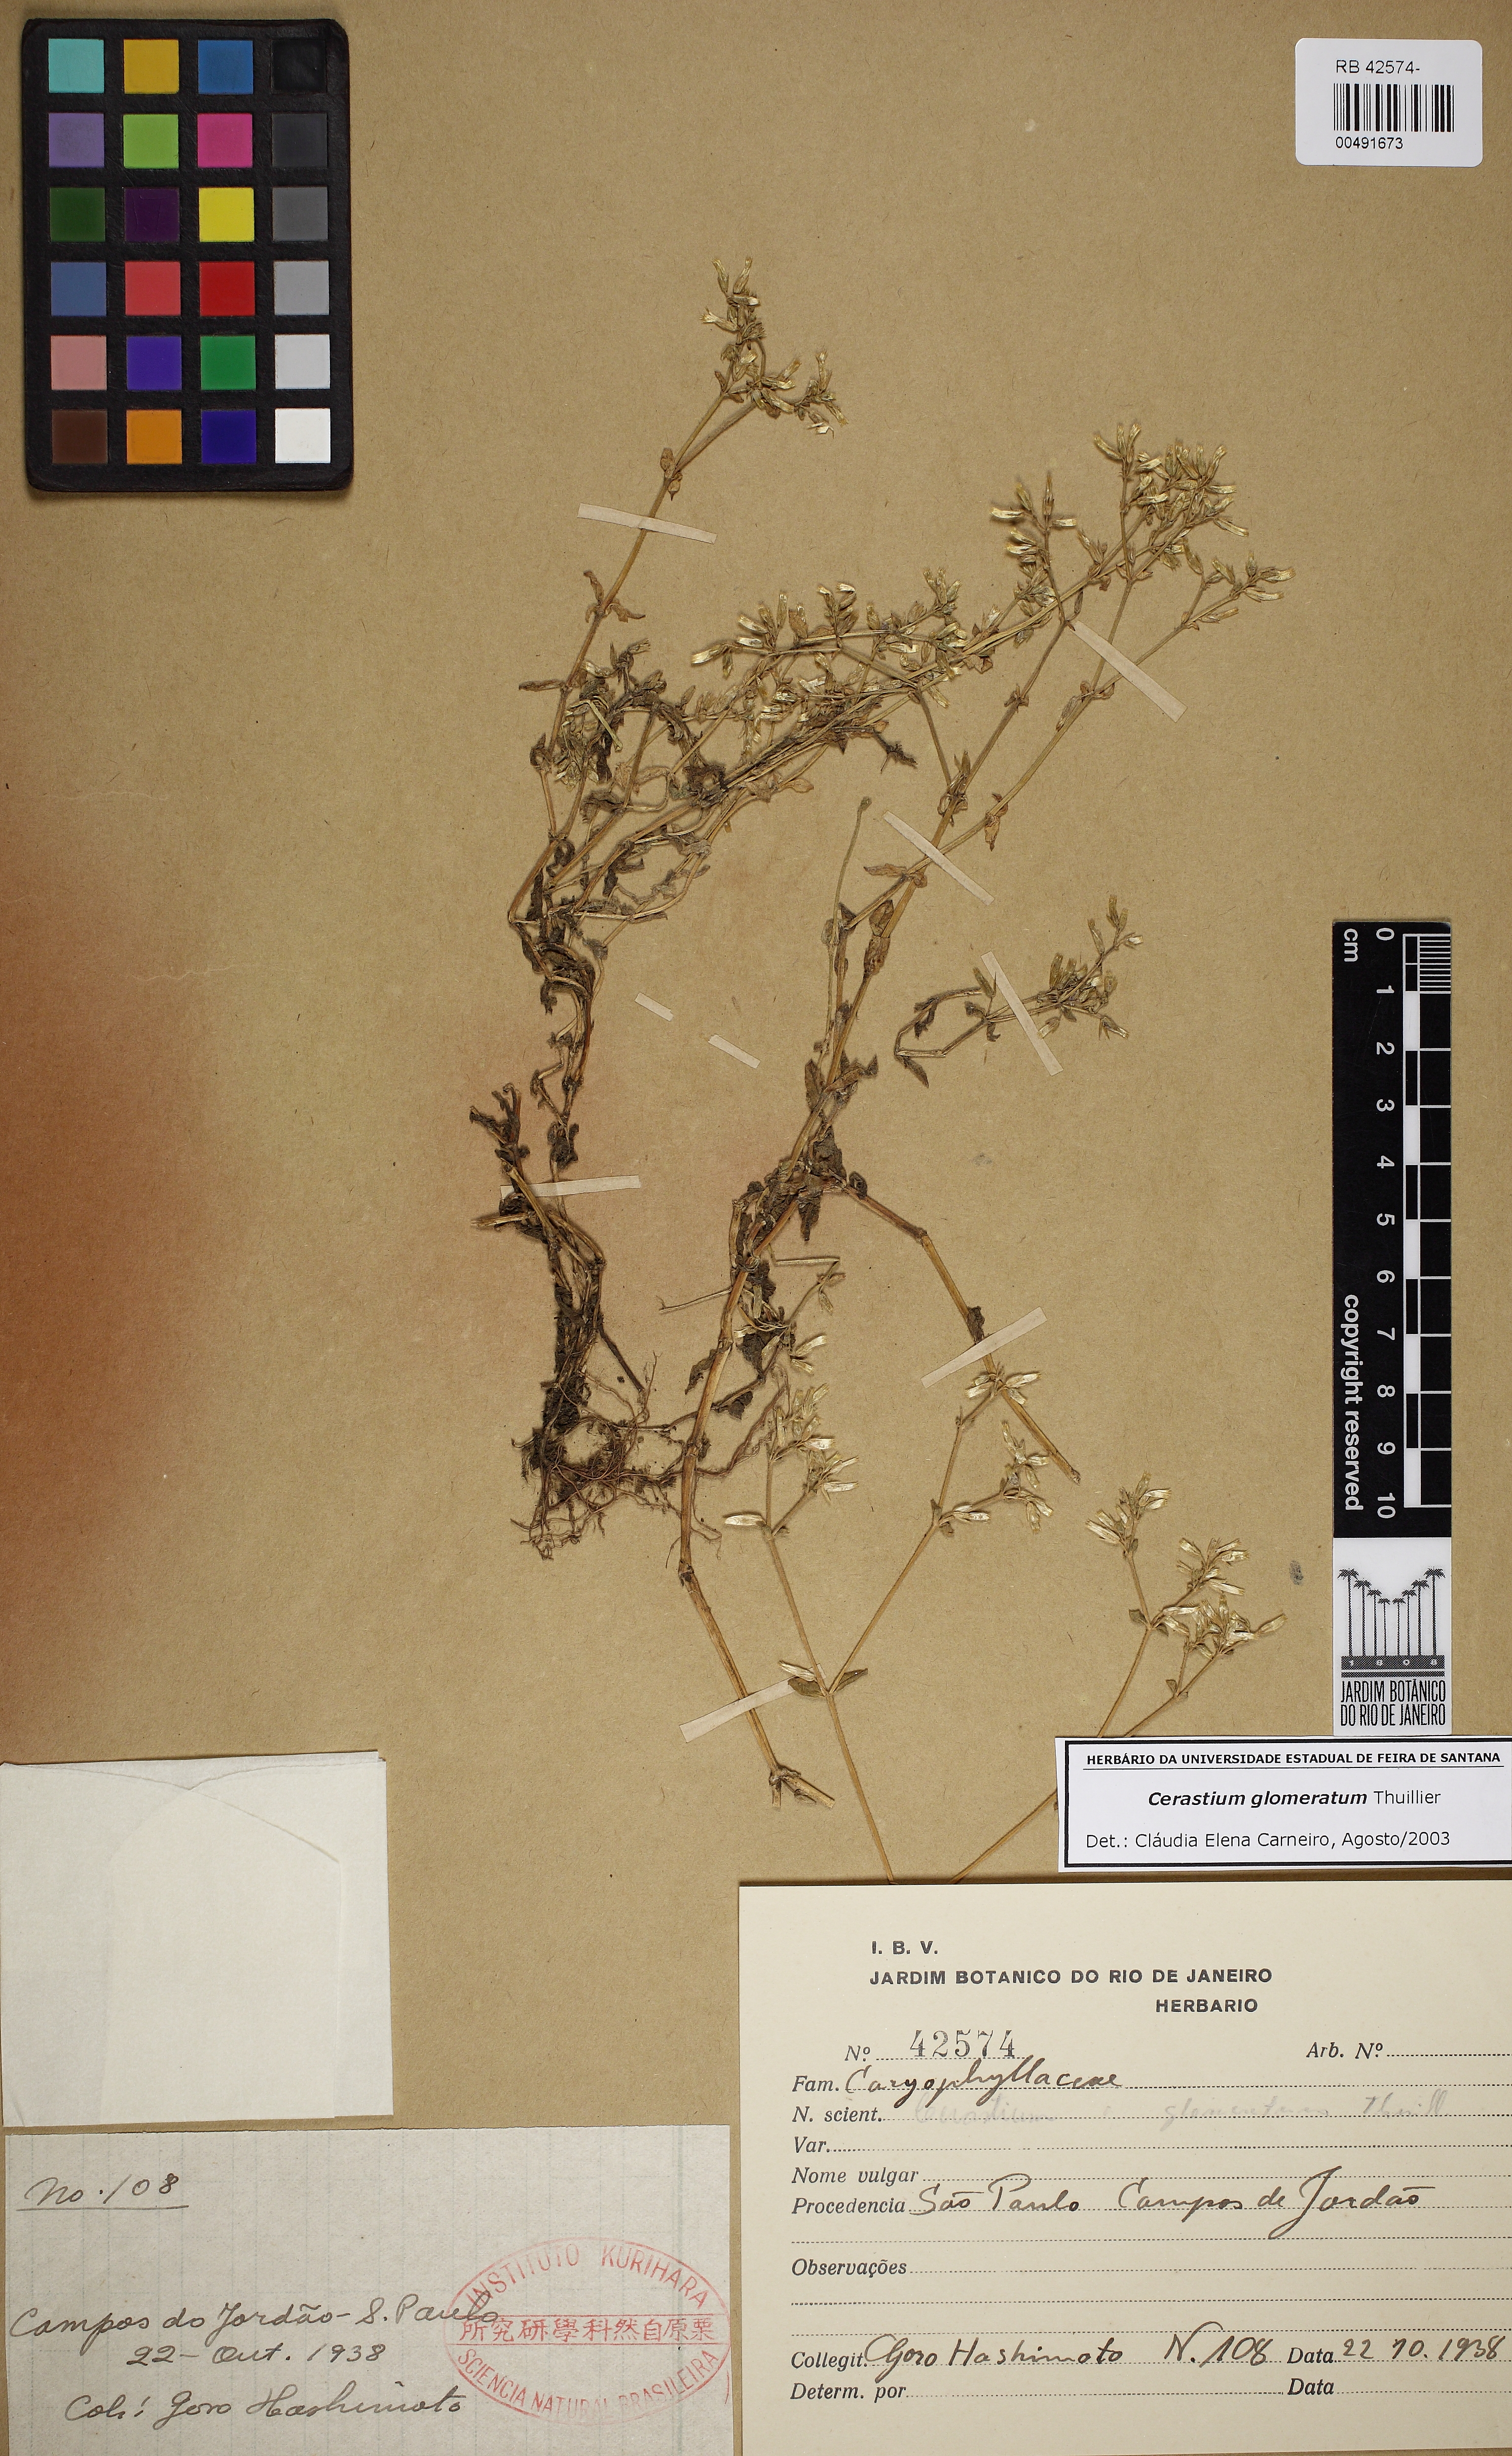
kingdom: Plantae
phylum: Tracheophyta
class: Magnoliopsida
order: Caryophyllales
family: Caryophyllaceae
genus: Cerastium
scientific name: Cerastium glomeratum
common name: Sticky chickweed
